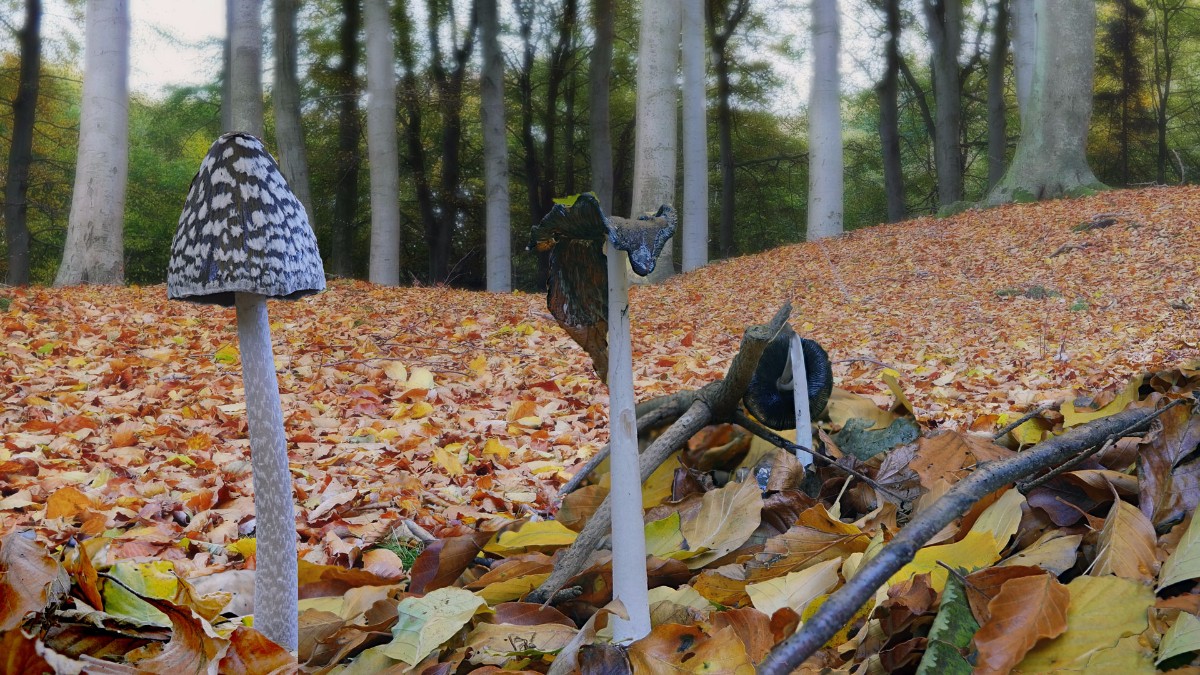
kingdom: Fungi
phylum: Basidiomycota
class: Agaricomycetes
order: Agaricales
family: Psathyrellaceae
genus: Coprinopsis
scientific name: Coprinopsis picacea
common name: skade-blækhat
